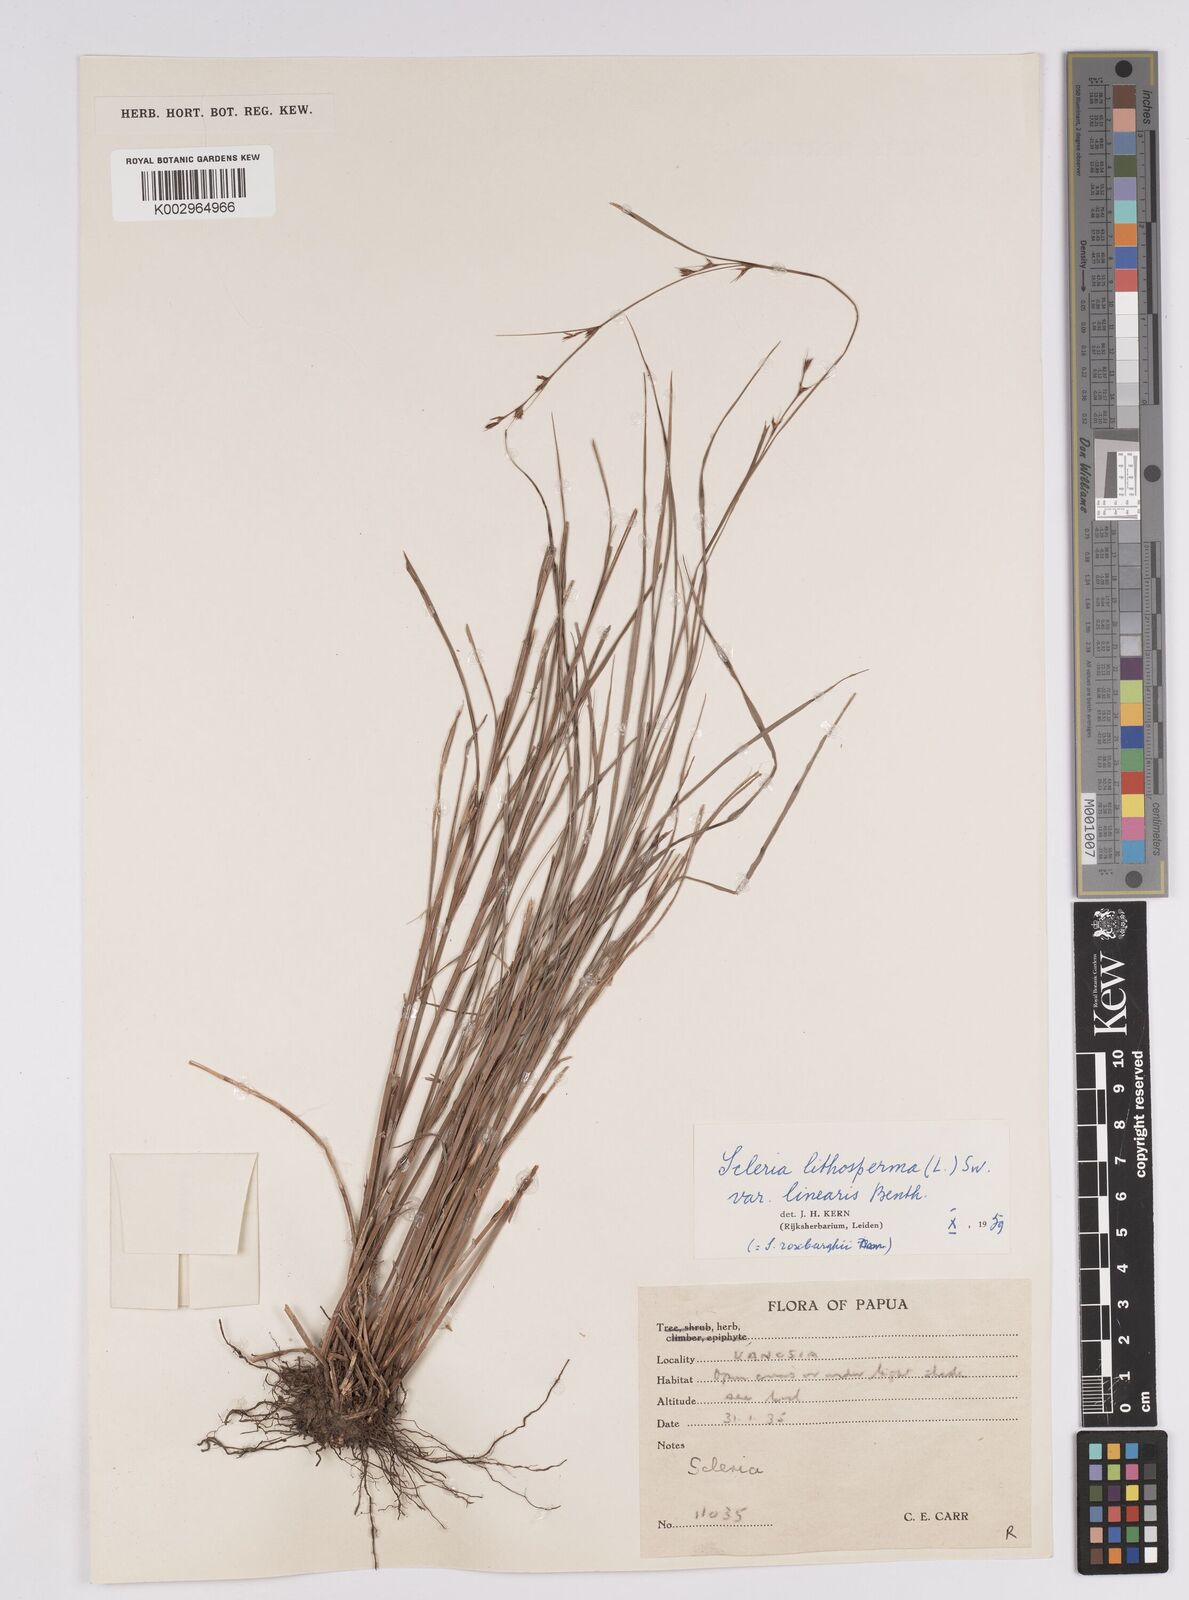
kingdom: Plantae
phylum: Tracheophyta
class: Liliopsida
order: Poales
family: Cyperaceae
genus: Scleria
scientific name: Scleria lithosperma
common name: Florida keys nut-rush
